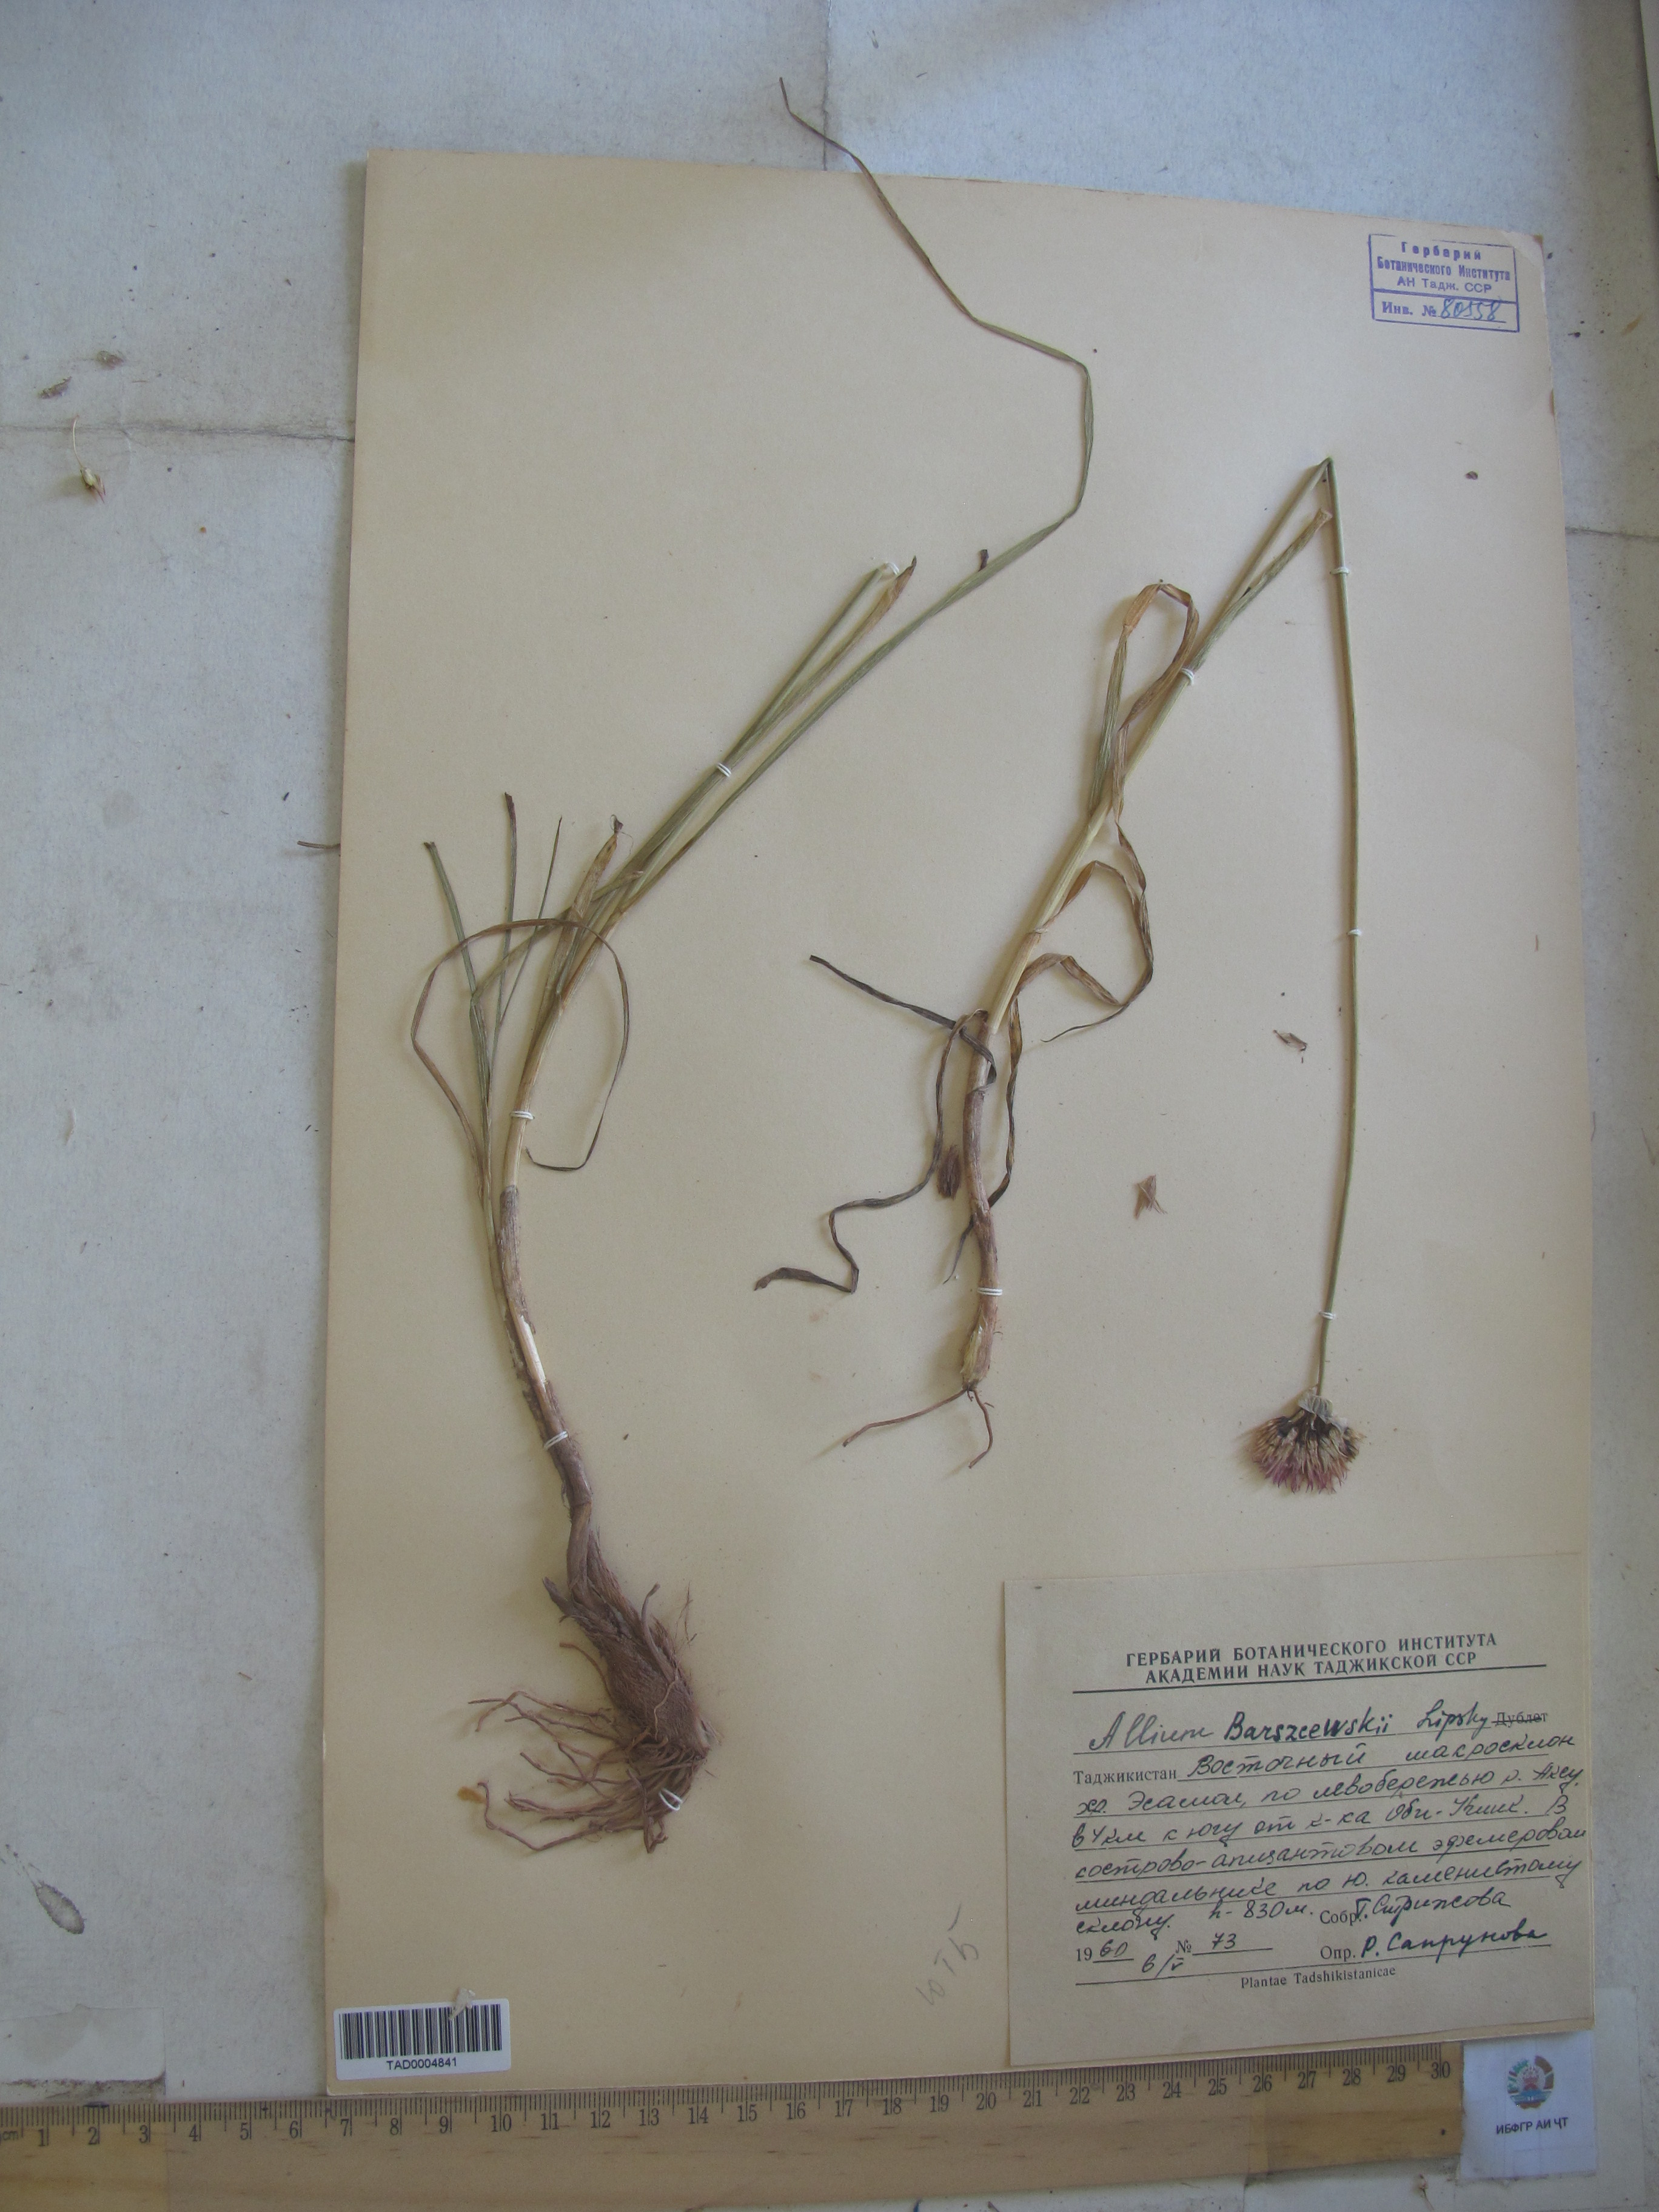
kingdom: Plantae
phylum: Tracheophyta
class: Liliopsida
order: Asparagales
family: Amaryllidaceae
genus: Allium
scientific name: Allium barsczewskii
